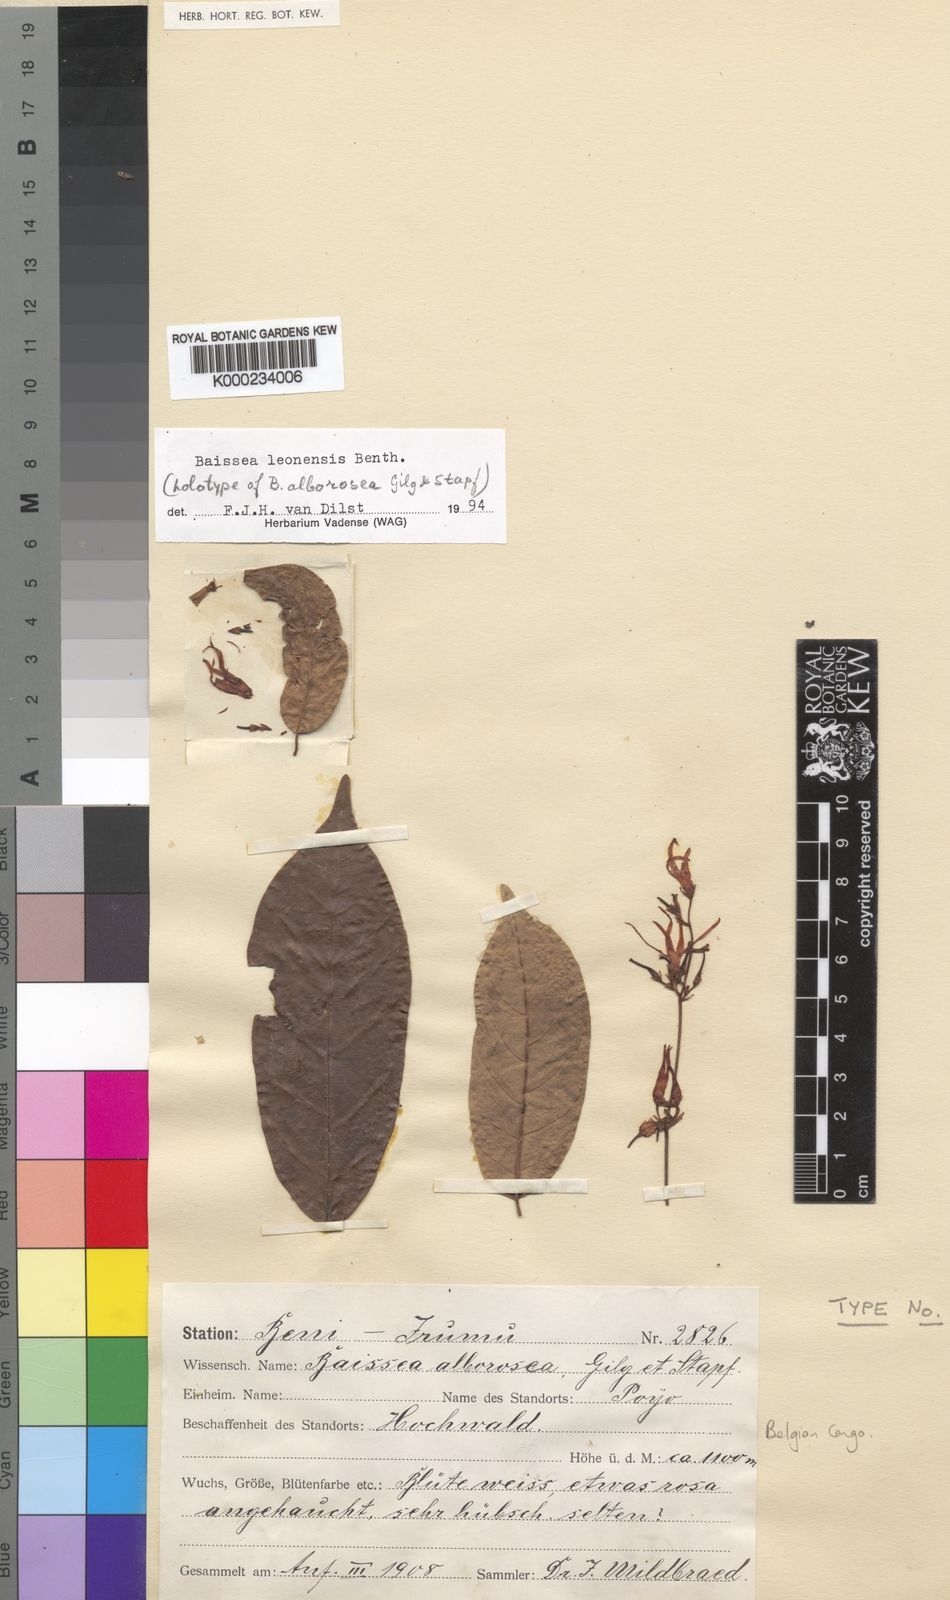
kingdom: Plantae
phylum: Tracheophyta
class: Magnoliopsida
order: Gentianales
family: Apocynaceae
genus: Baissea
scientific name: Baissea leonensis
